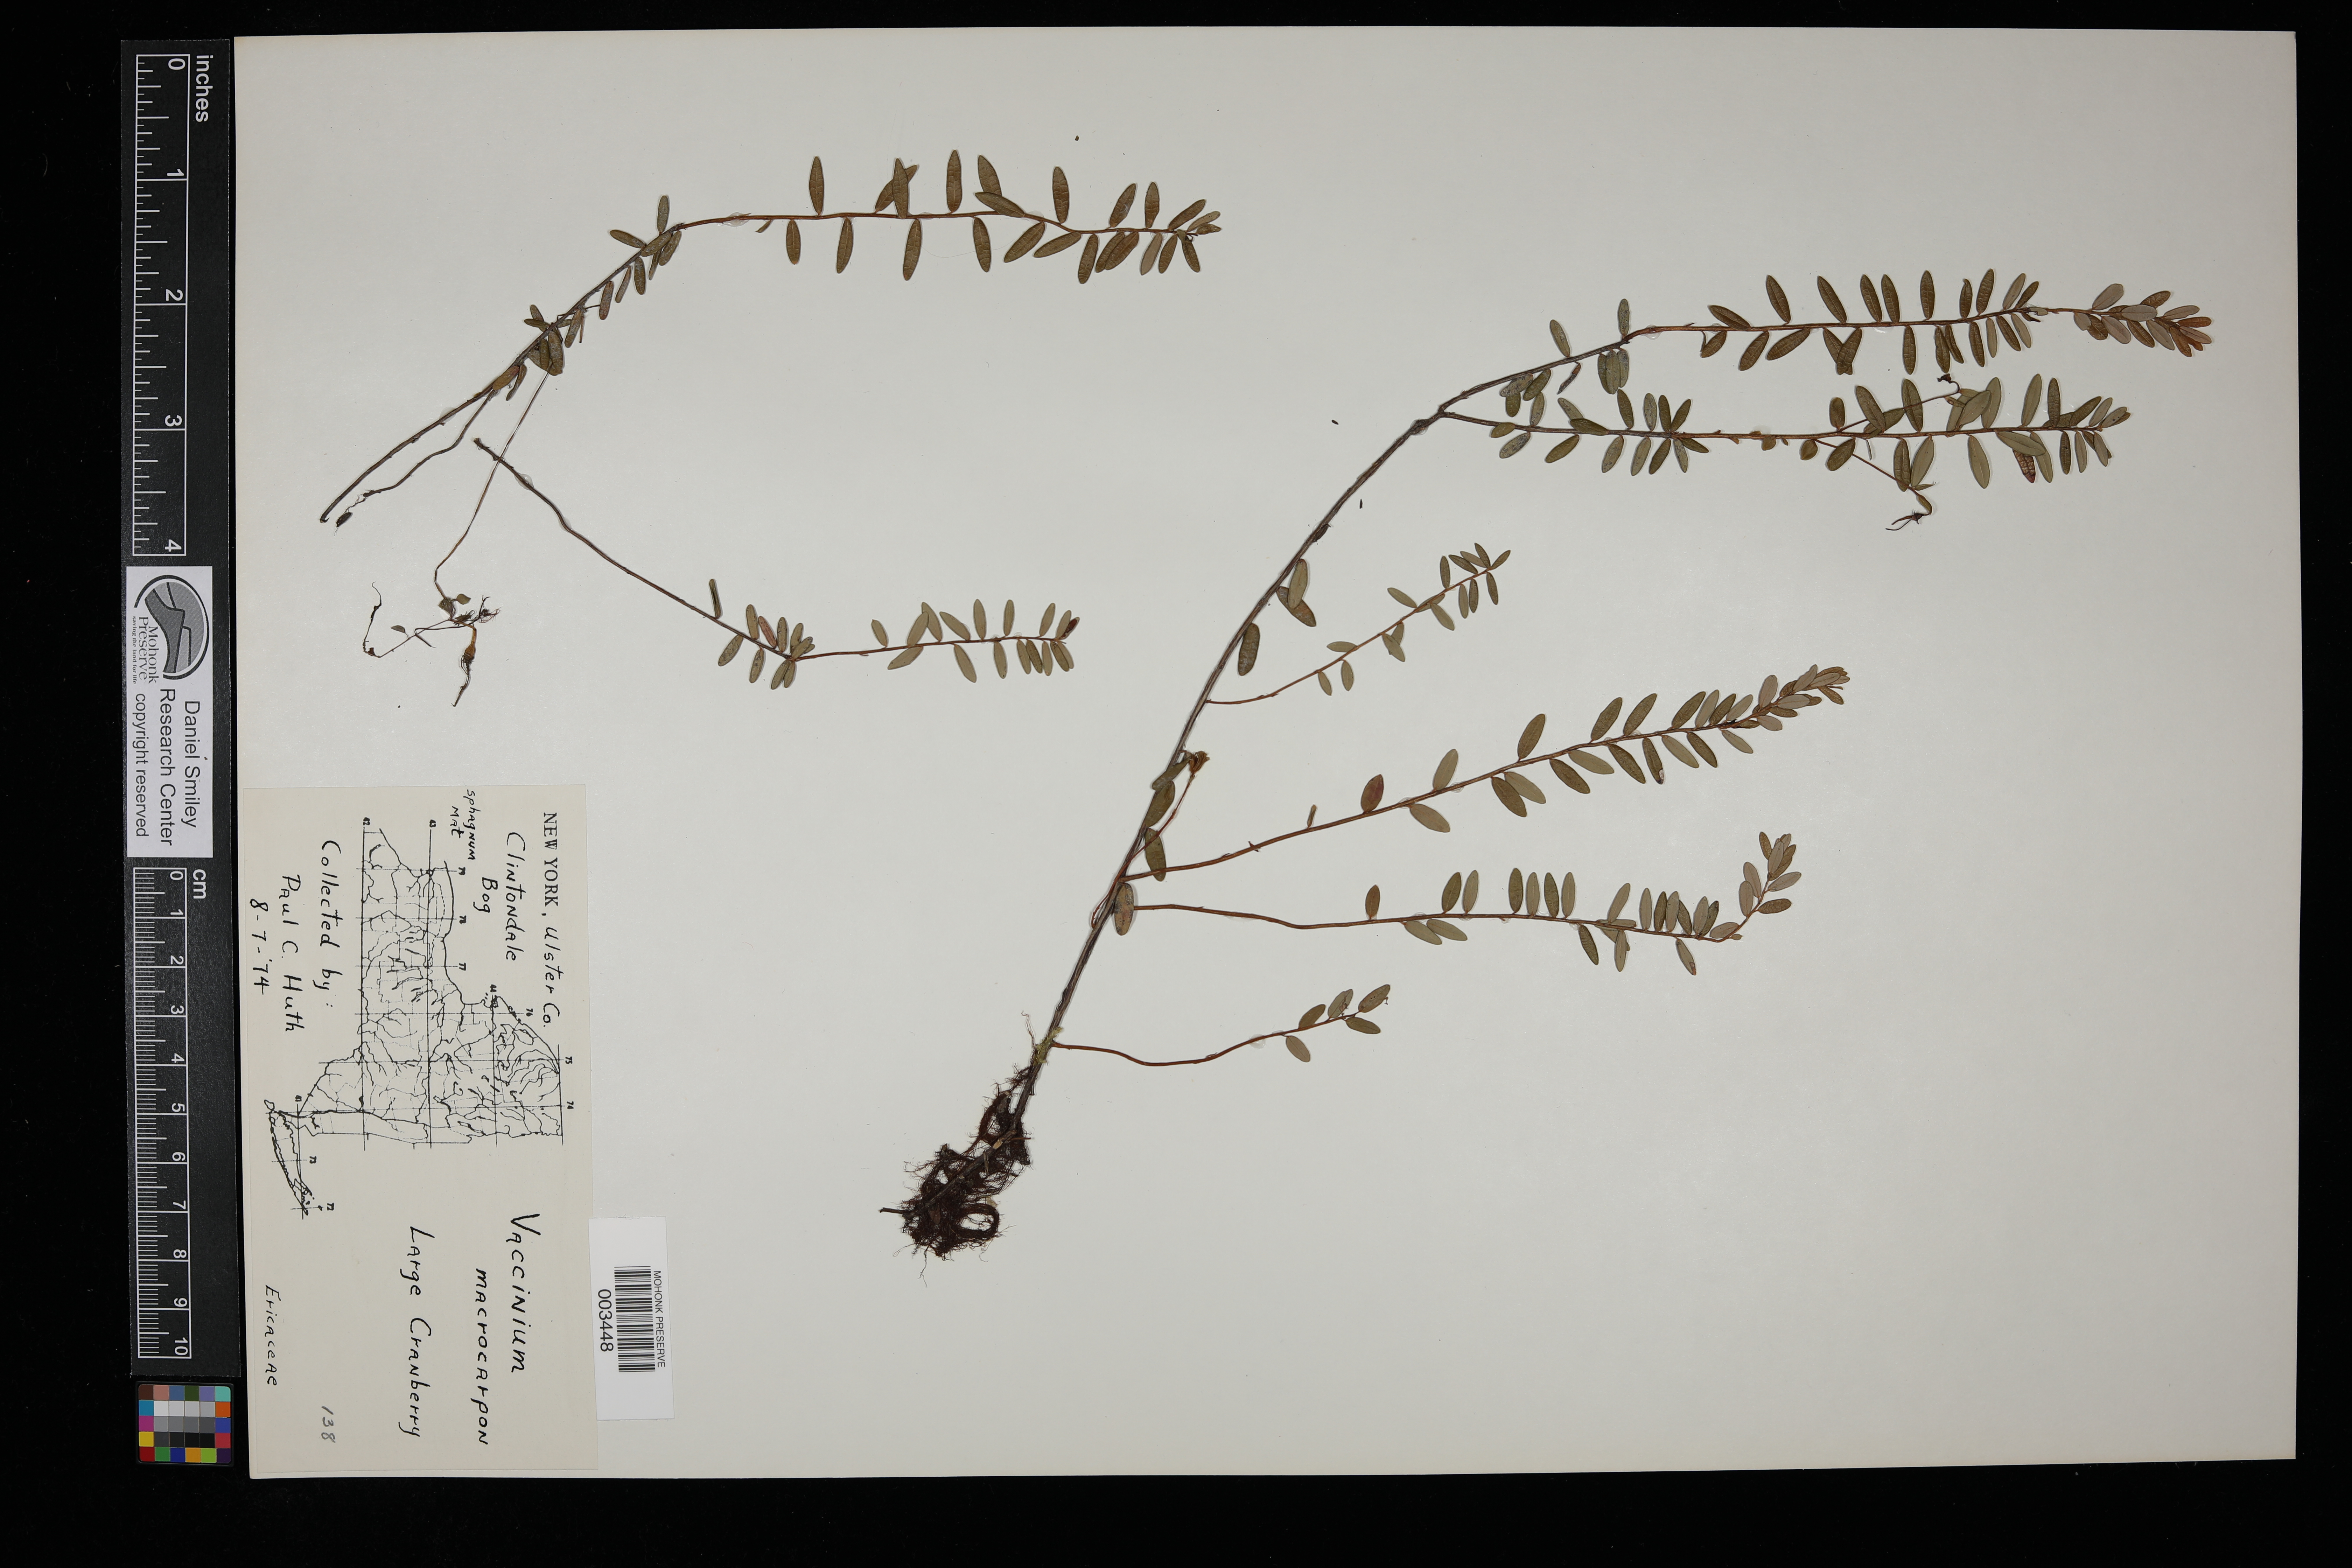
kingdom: Plantae
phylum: Tracheophyta
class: Magnoliopsida
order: Ericales
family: Ericaceae
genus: Vaccinium
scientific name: Vaccinium macrocarpon
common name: American cranberry
